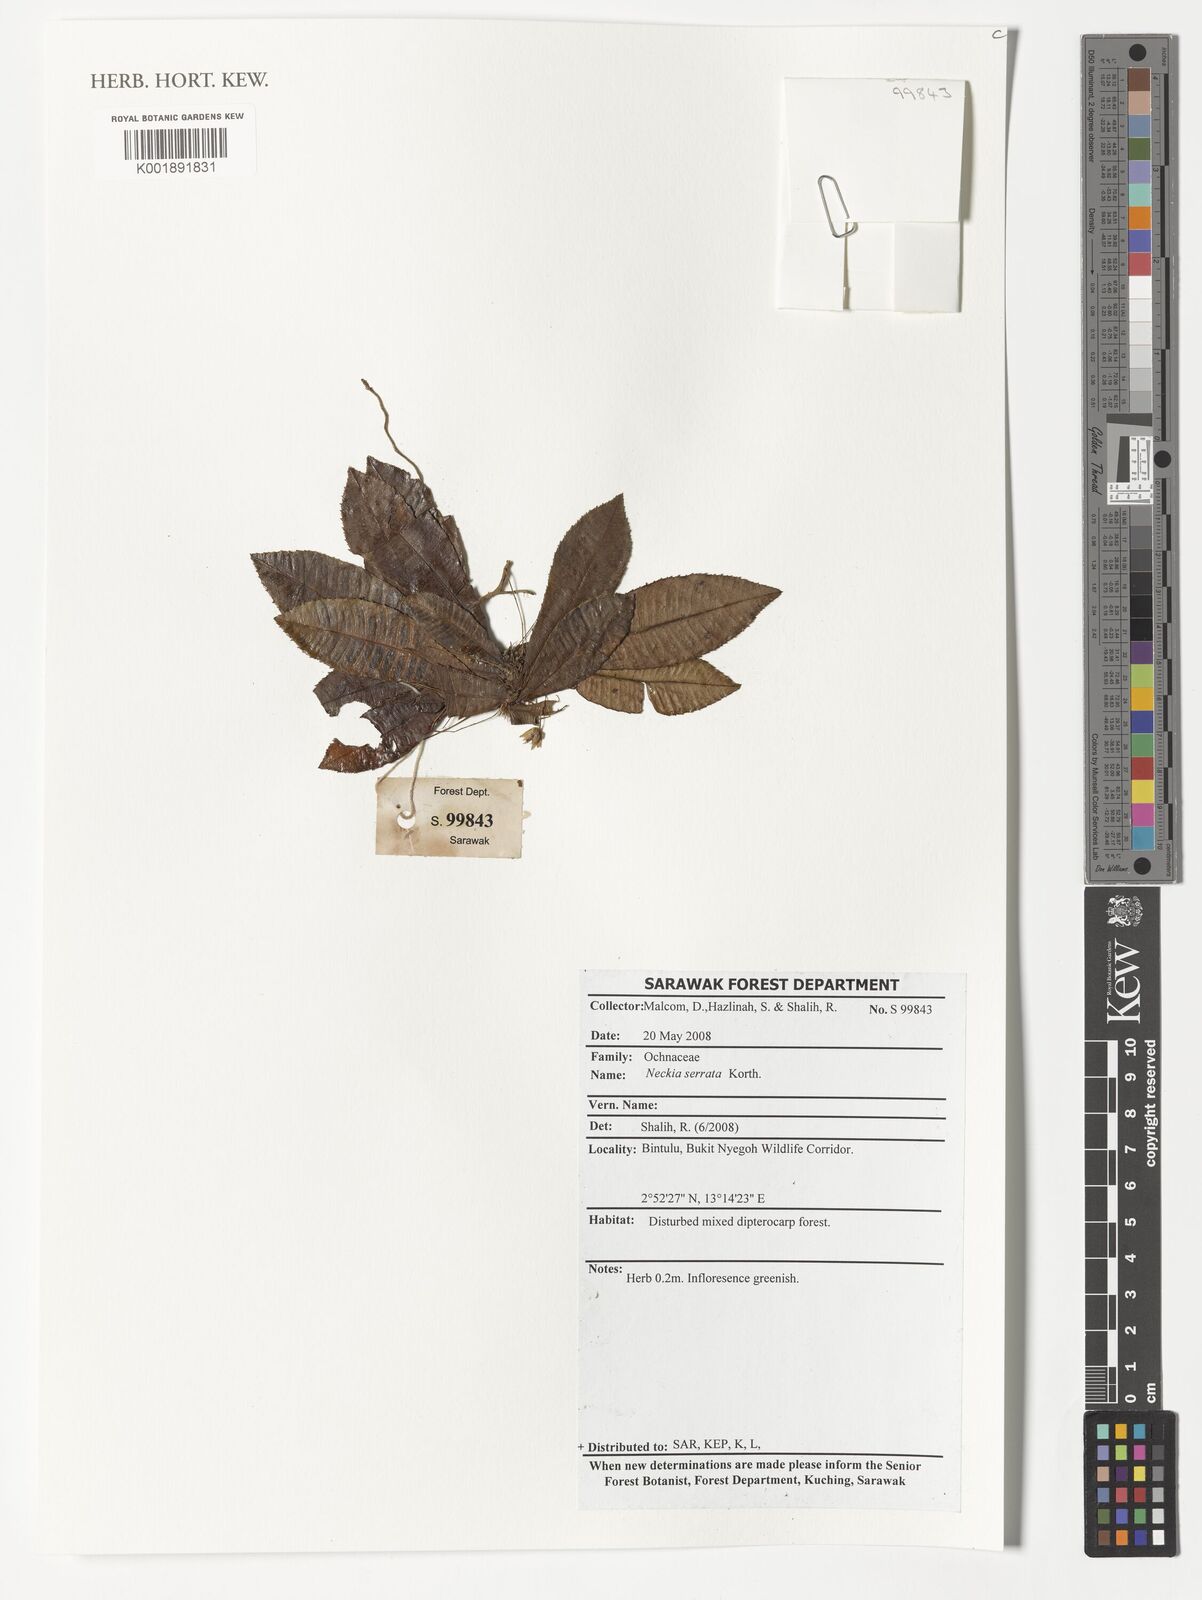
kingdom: Plantae
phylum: Tracheophyta
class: Magnoliopsida
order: Malpighiales
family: Ochnaceae
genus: Neckia
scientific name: Neckia serrata
